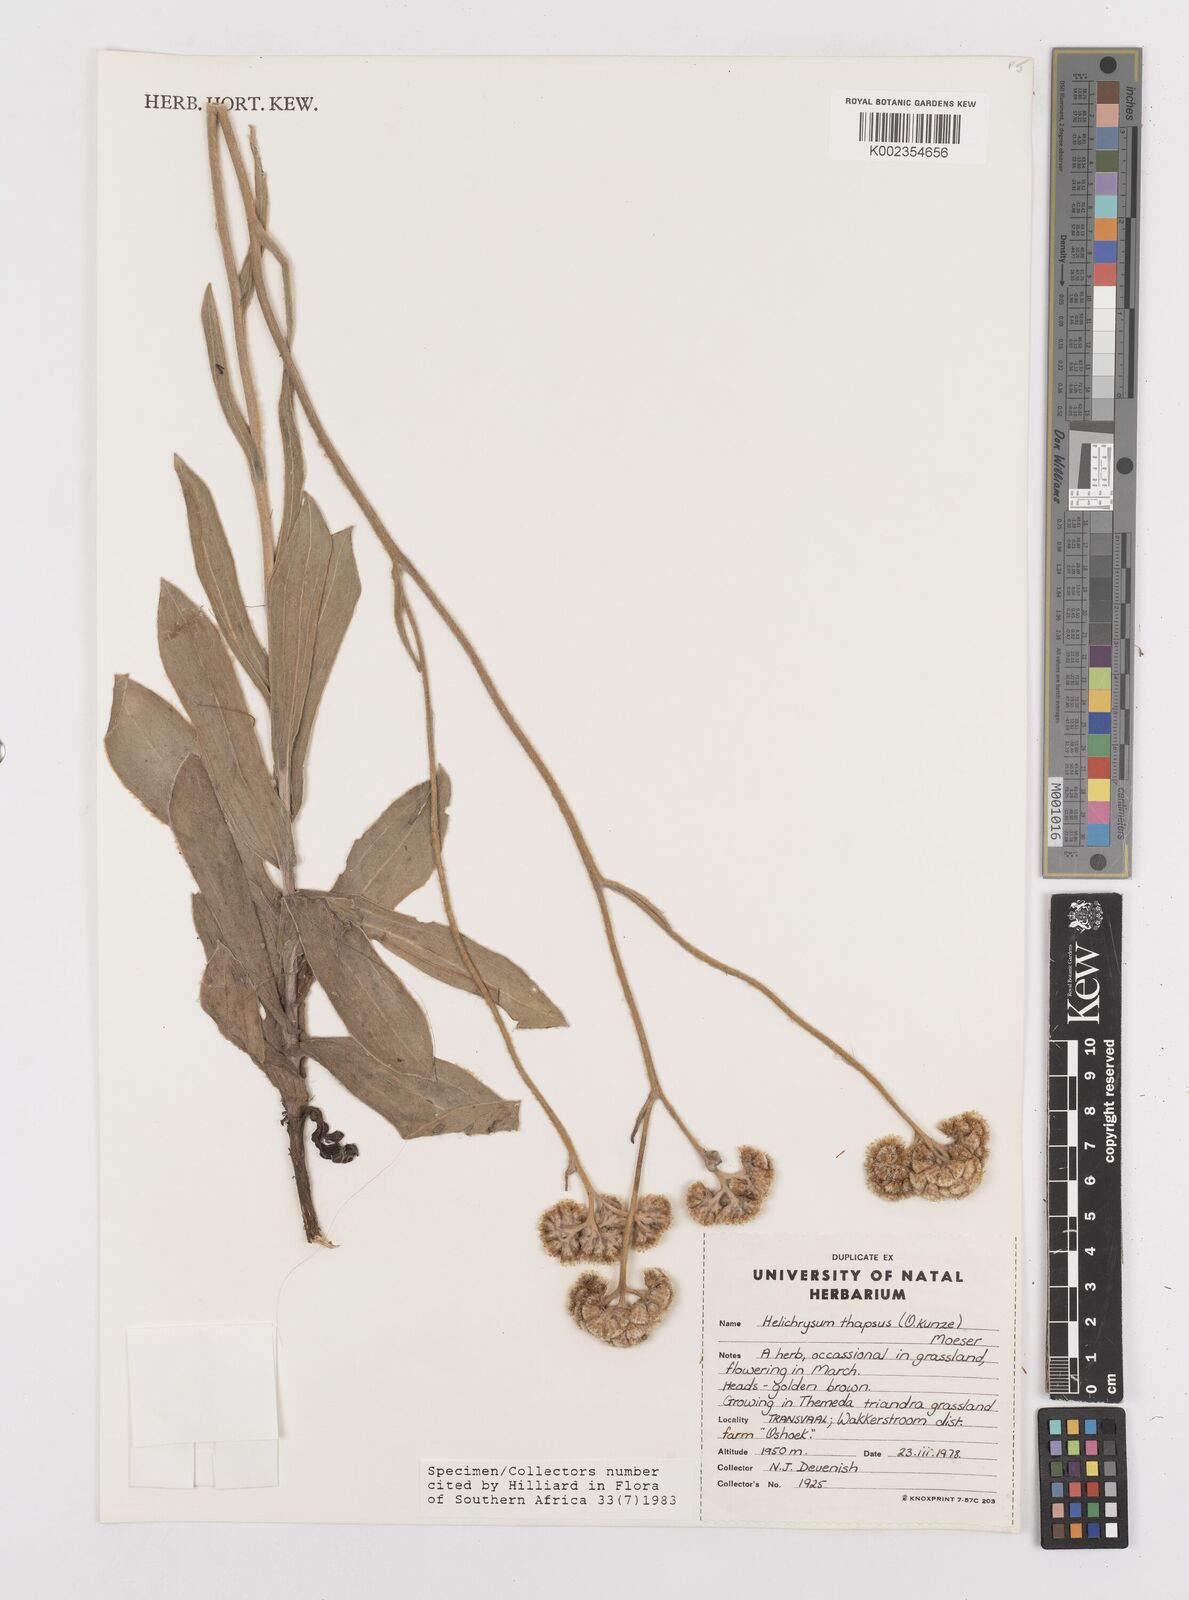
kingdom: Plantae
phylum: Tracheophyta
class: Magnoliopsida
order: Asterales
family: Asteraceae
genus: Helichrysum
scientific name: Helichrysum thapsus
